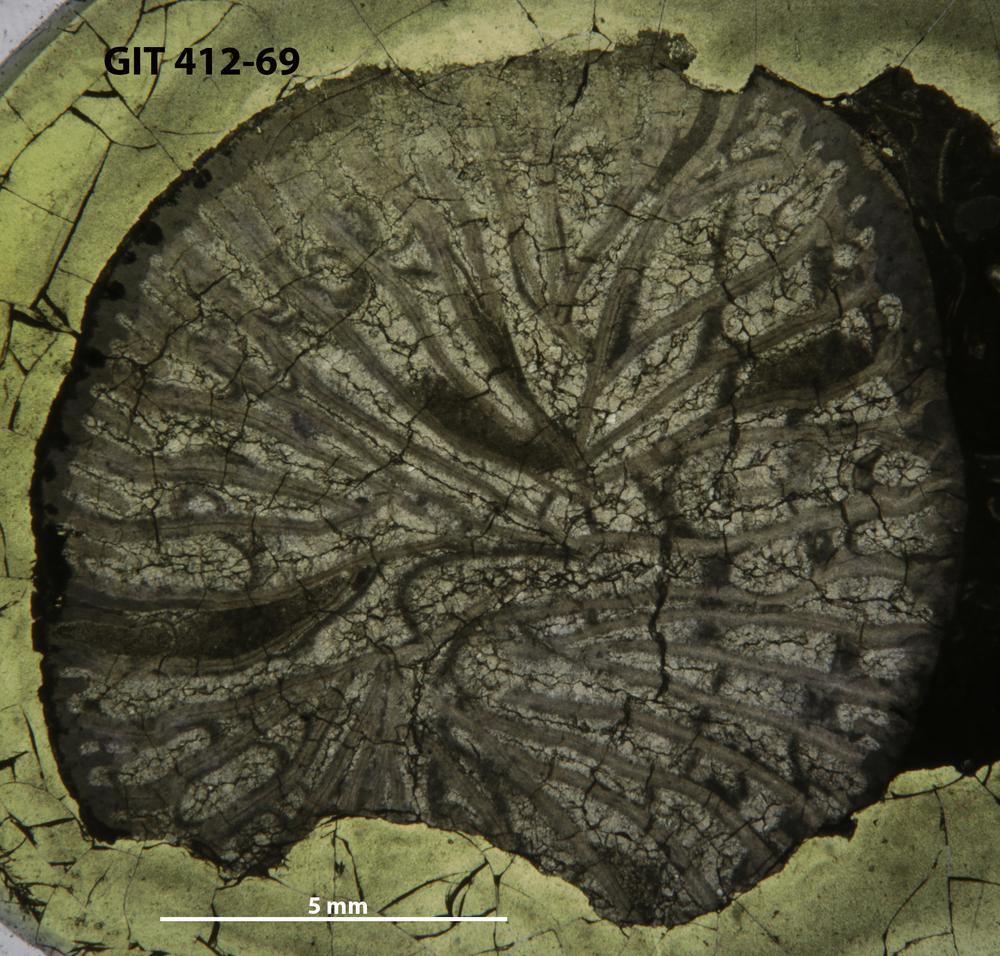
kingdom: Animalia
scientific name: Animalia
